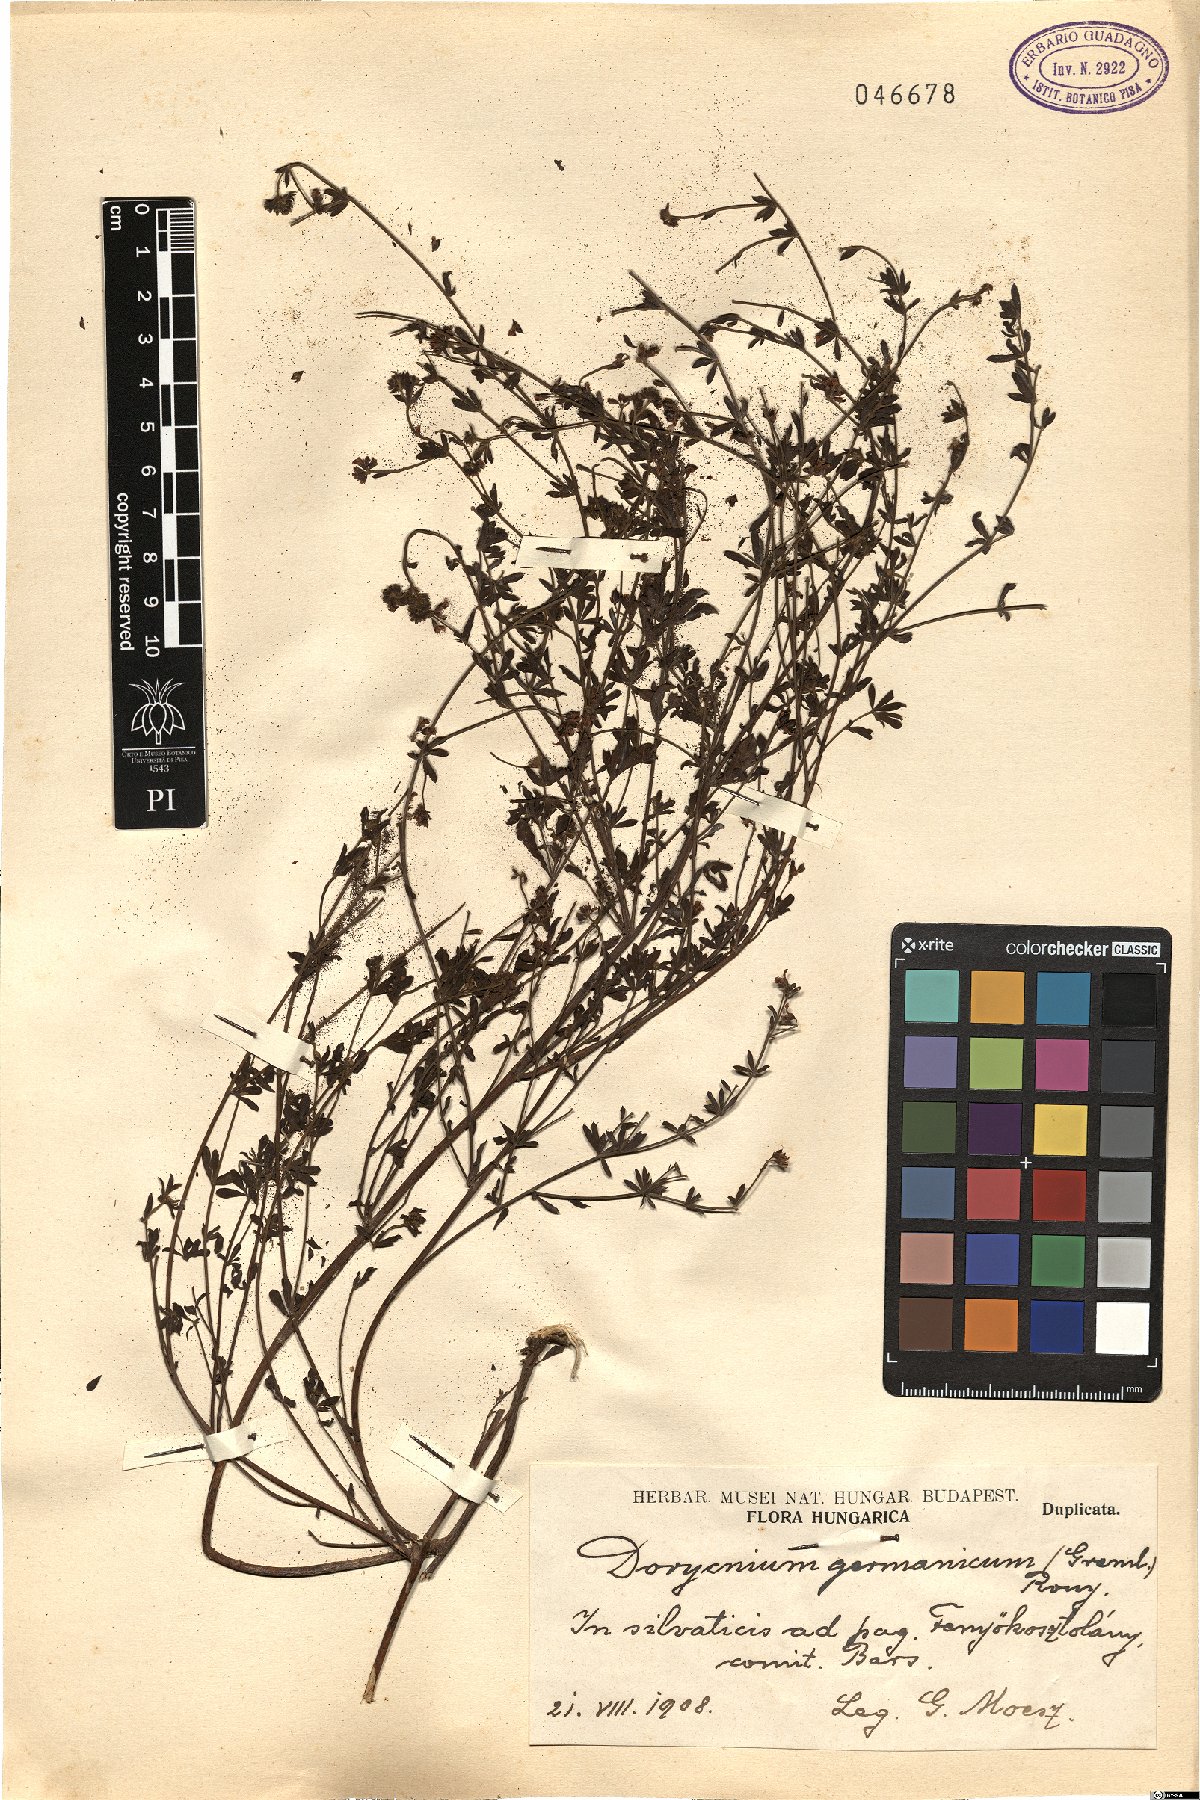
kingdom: Plantae
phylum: Tracheophyta
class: Magnoliopsida
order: Fabales
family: Fabaceae
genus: Lotus
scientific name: Lotus germanicus
